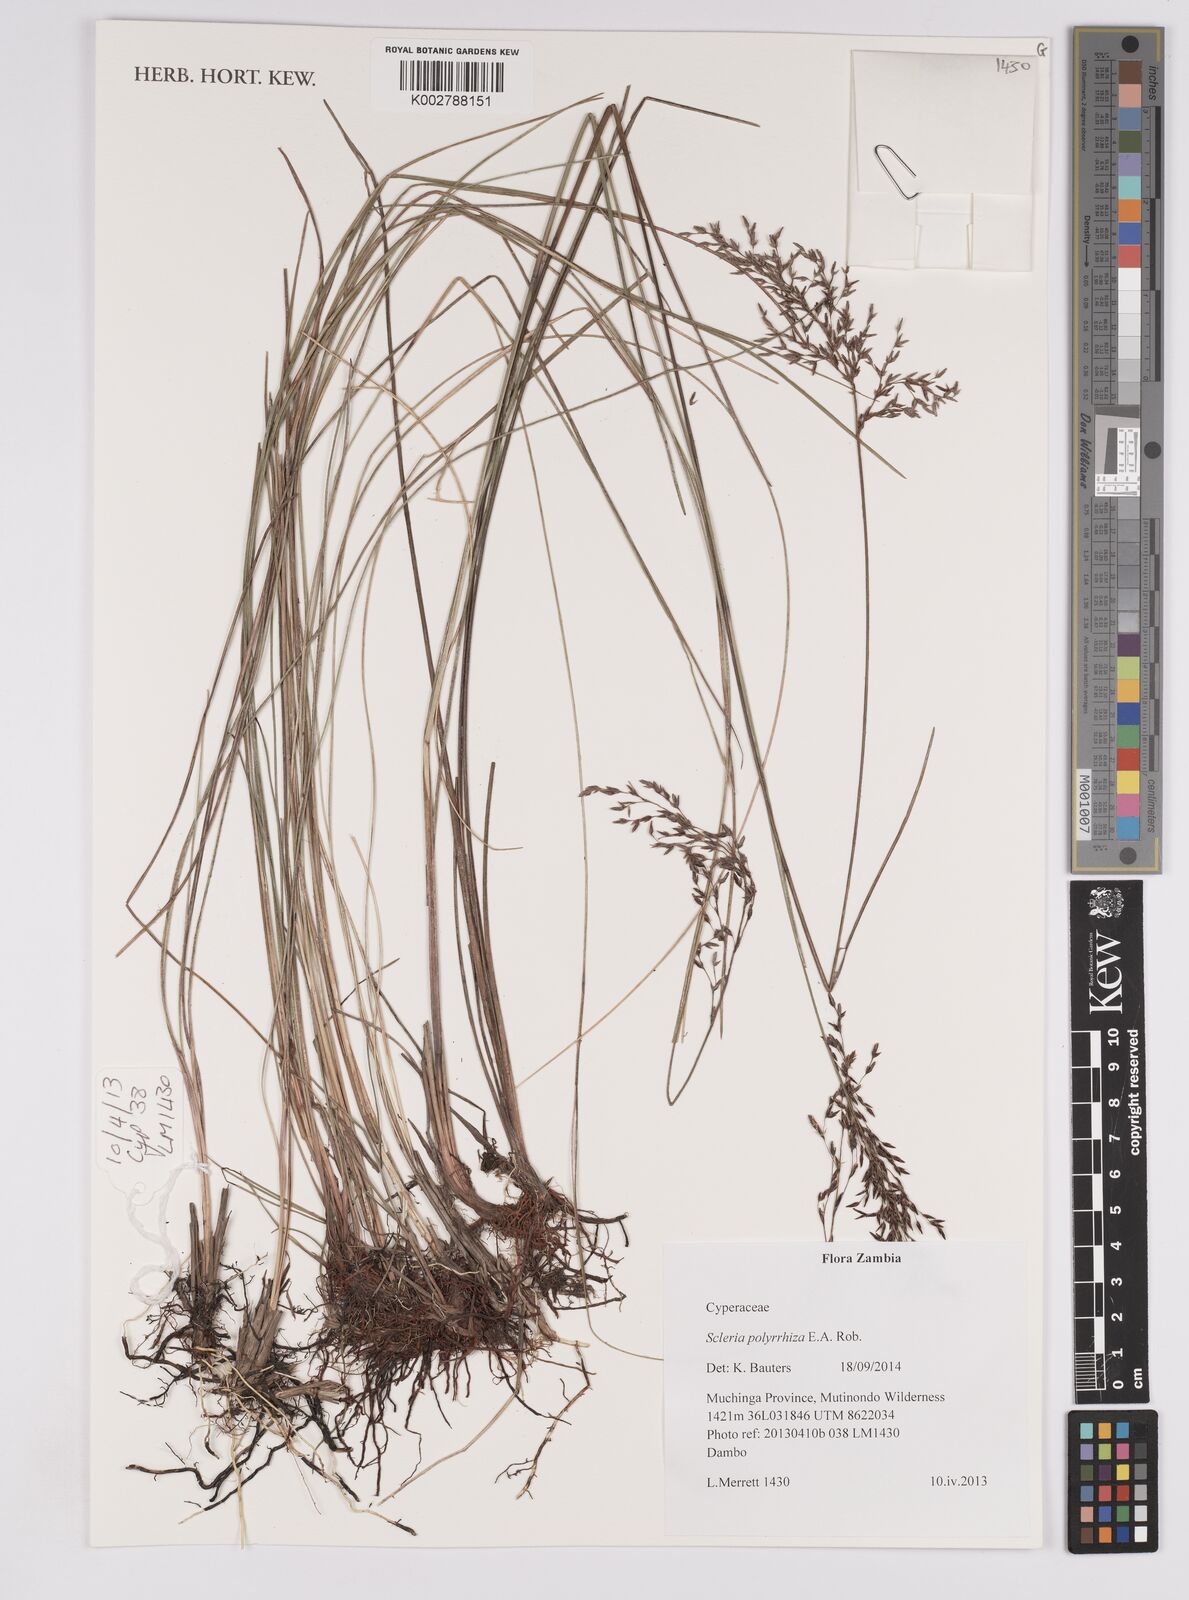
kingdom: Plantae
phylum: Tracheophyta
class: Liliopsida
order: Poales
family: Cyperaceae
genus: Scleria
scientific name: Scleria polyrrhiza
